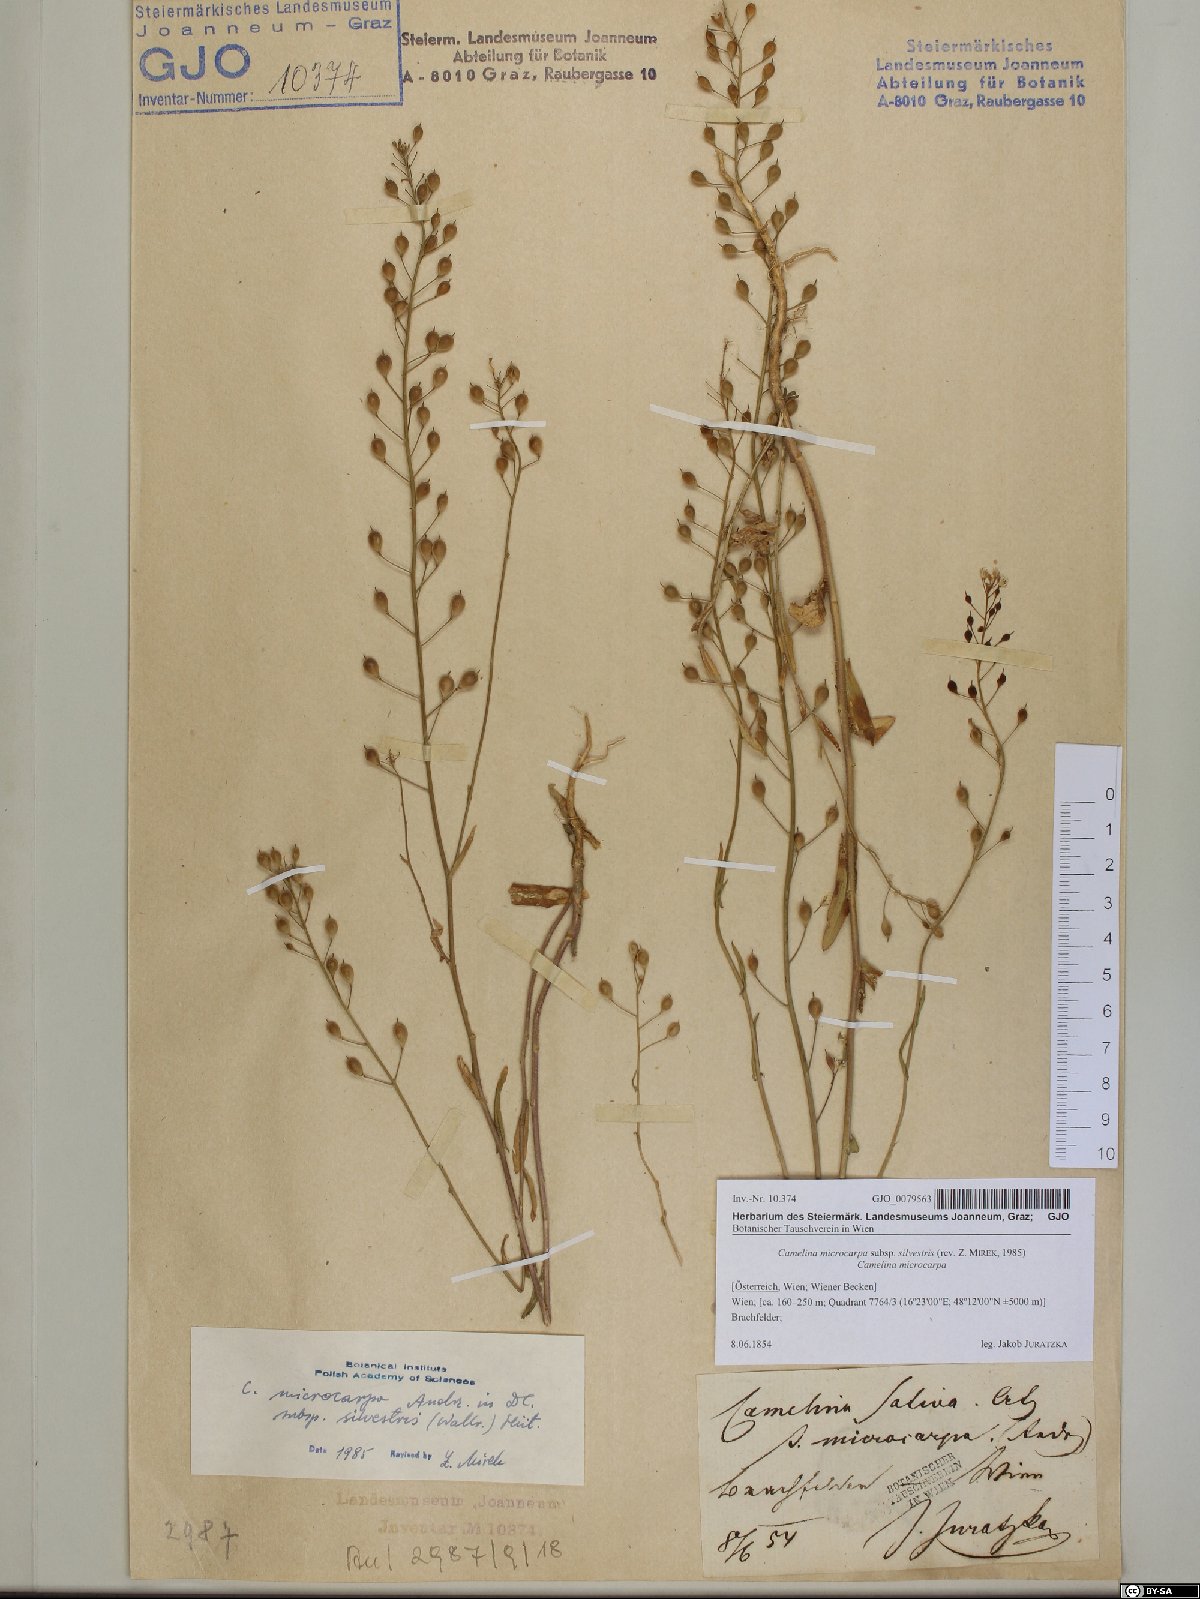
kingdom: Plantae
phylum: Tracheophyta
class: Magnoliopsida
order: Brassicales
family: Brassicaceae
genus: Camelina
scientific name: Camelina microcarpa
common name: Lesser gold-of-pleasure
